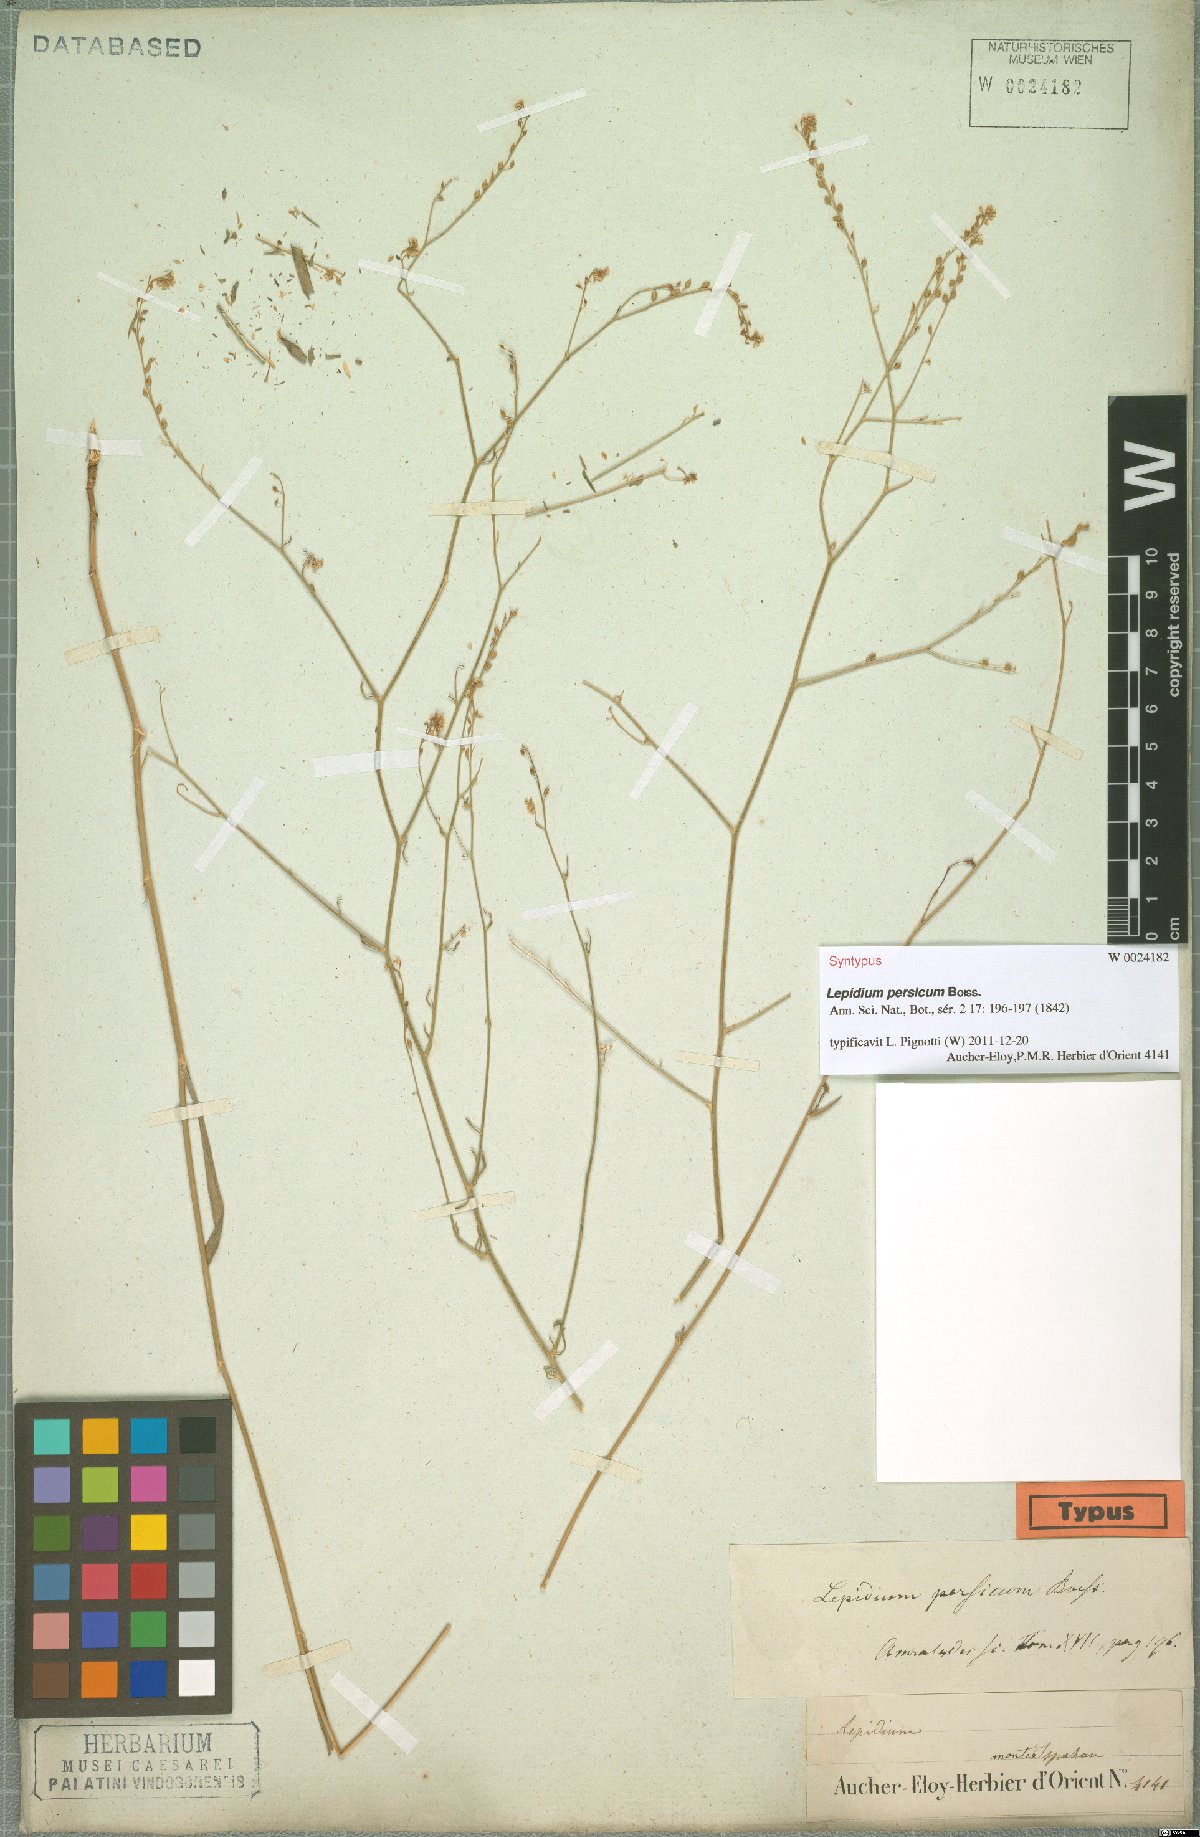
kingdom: Plantae
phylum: Tracheophyta
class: Magnoliopsida
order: Brassicales
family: Brassicaceae
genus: Lepidium
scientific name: Lepidium persicum
